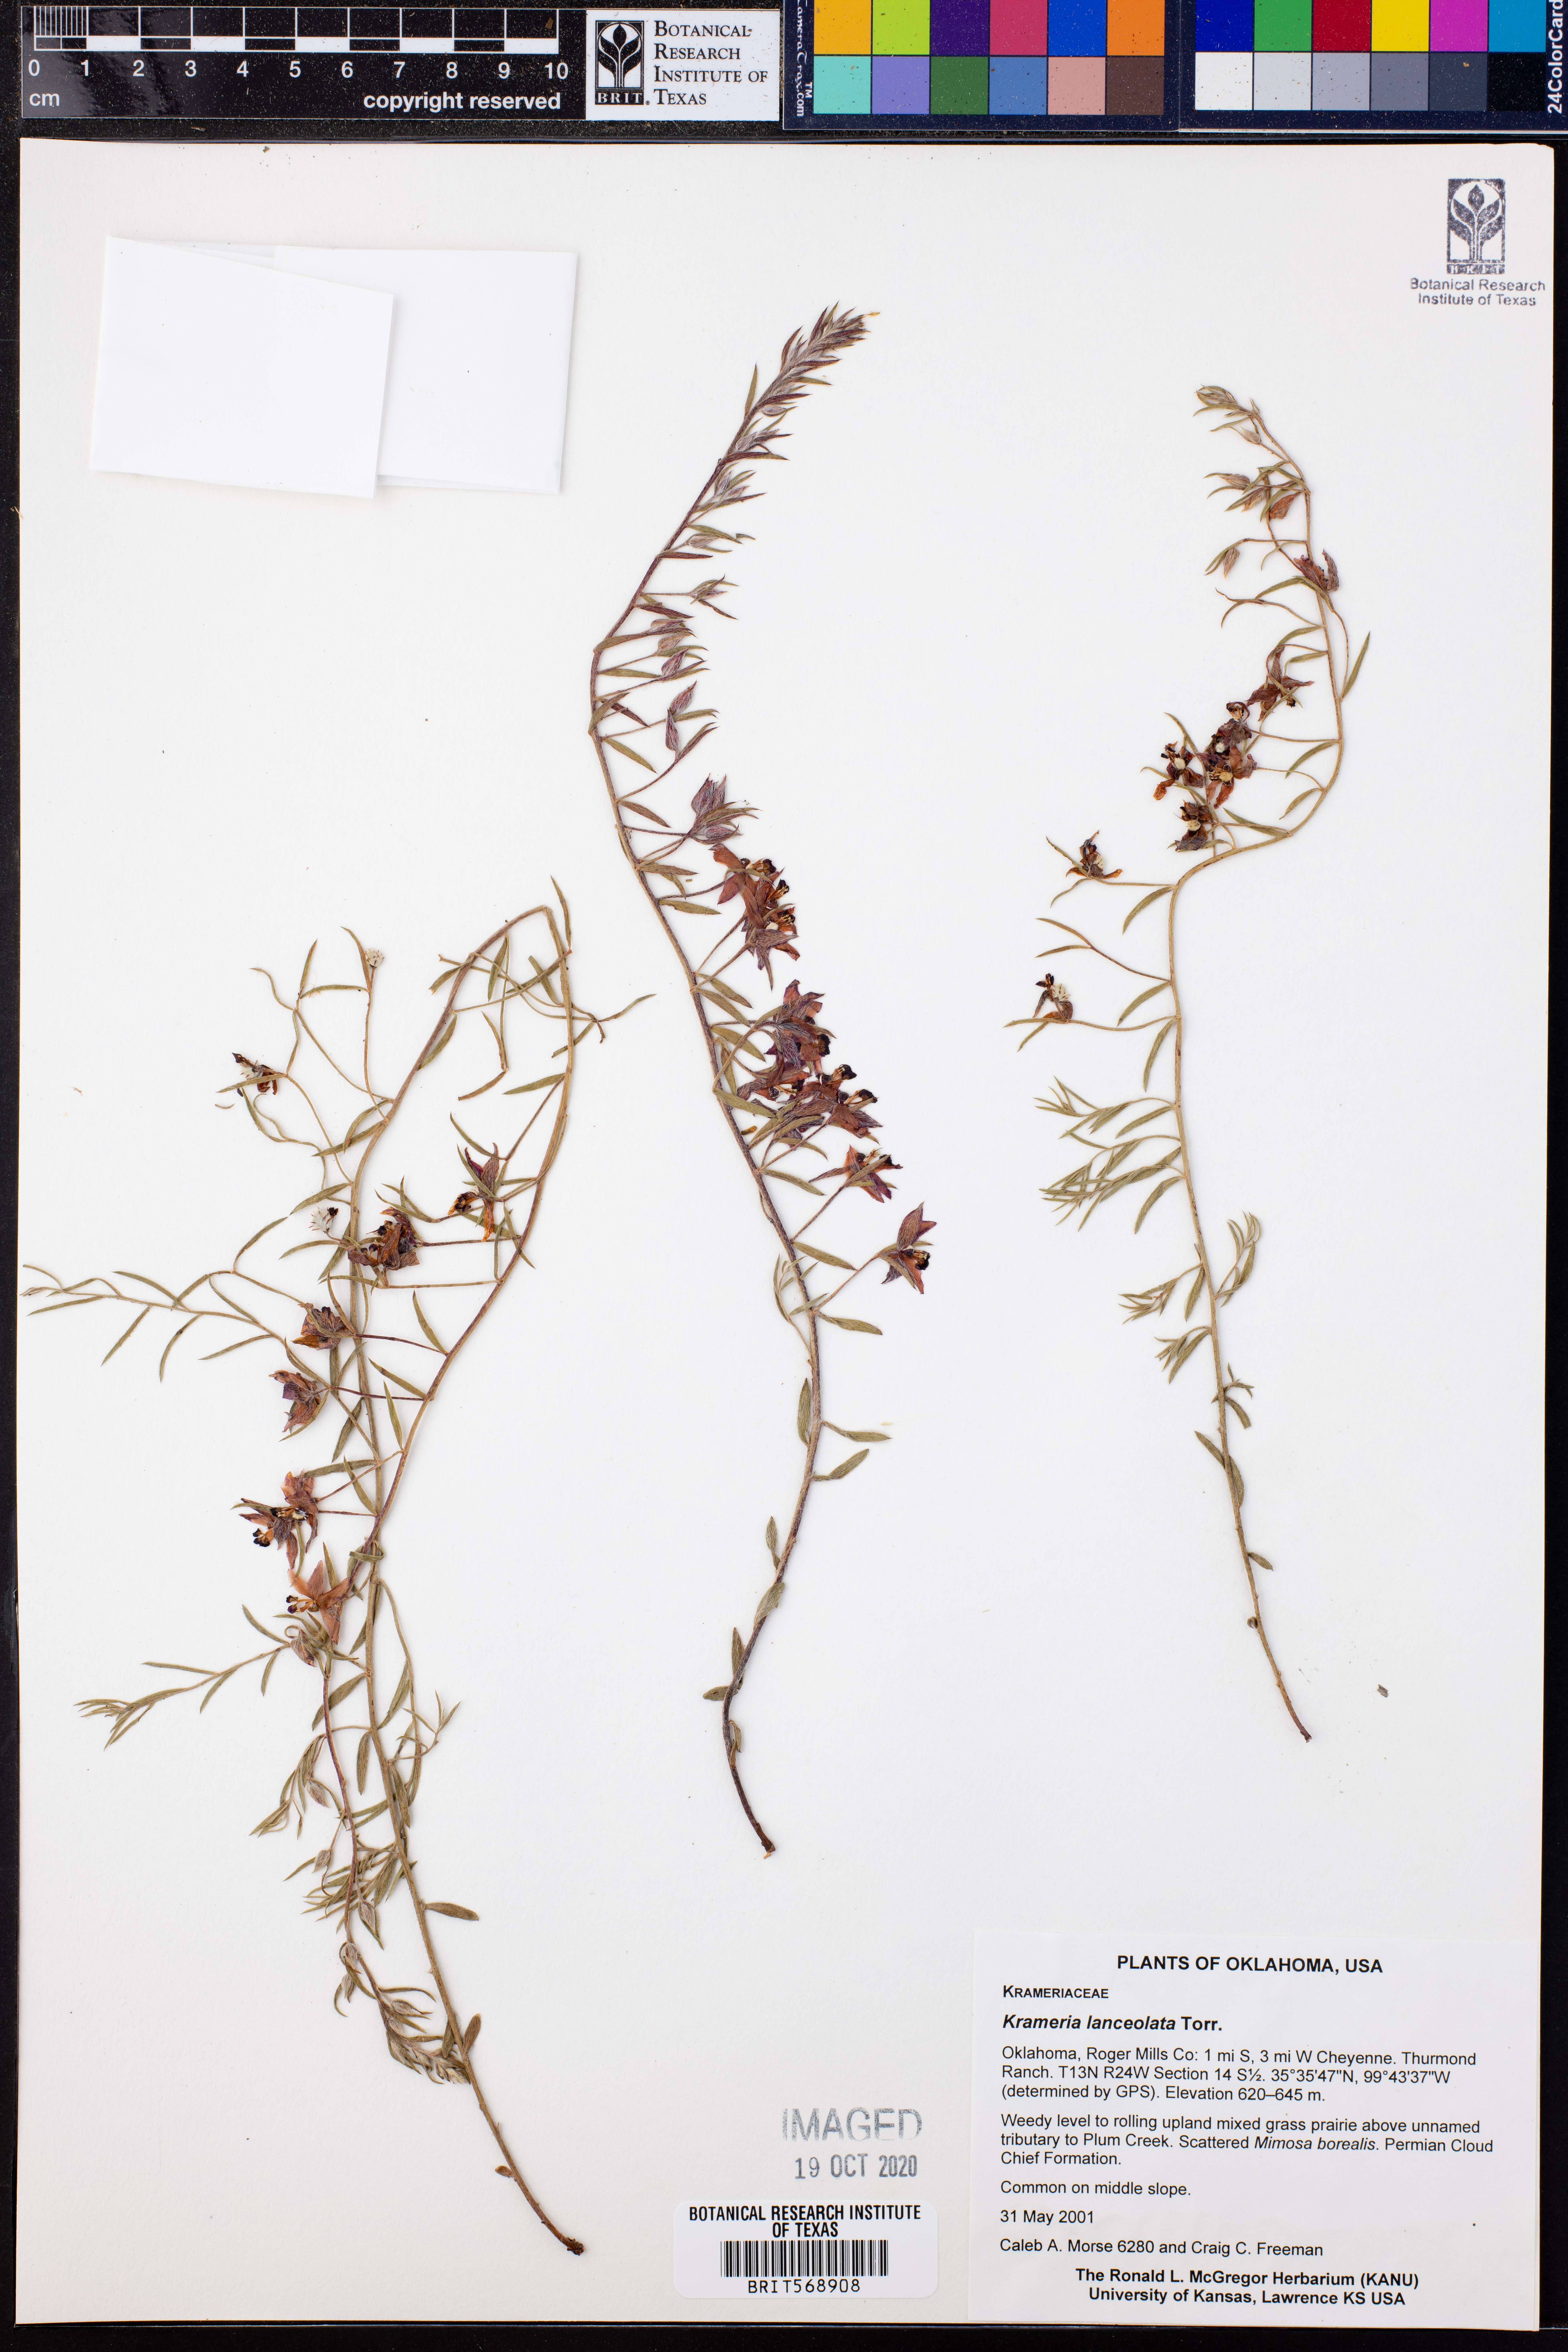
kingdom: Plantae
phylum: Tracheophyta
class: Magnoliopsida
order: Zygophyllales
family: Krameriaceae
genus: Krameria
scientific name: Krameria lanceolata
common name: Ratany
